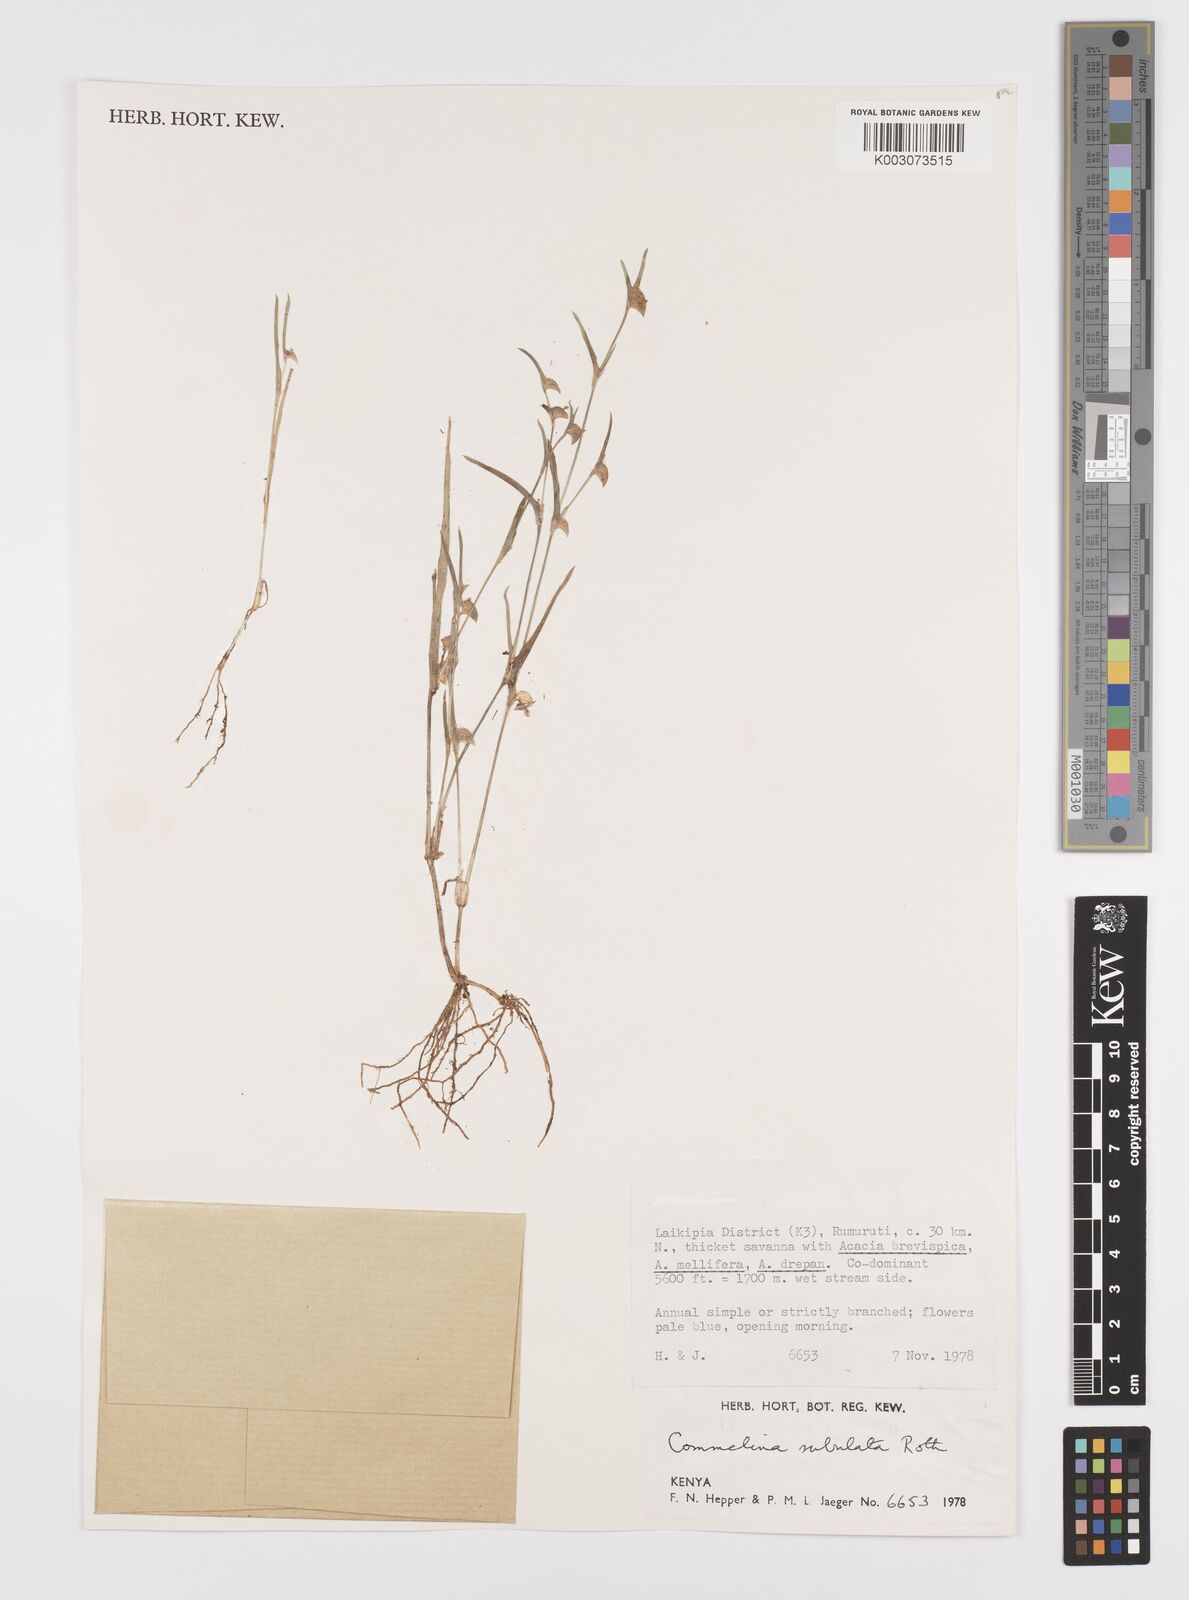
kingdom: Plantae
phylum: Tracheophyta
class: Liliopsida
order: Commelinales
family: Commelinaceae
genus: Commelina
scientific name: Commelina subulata
